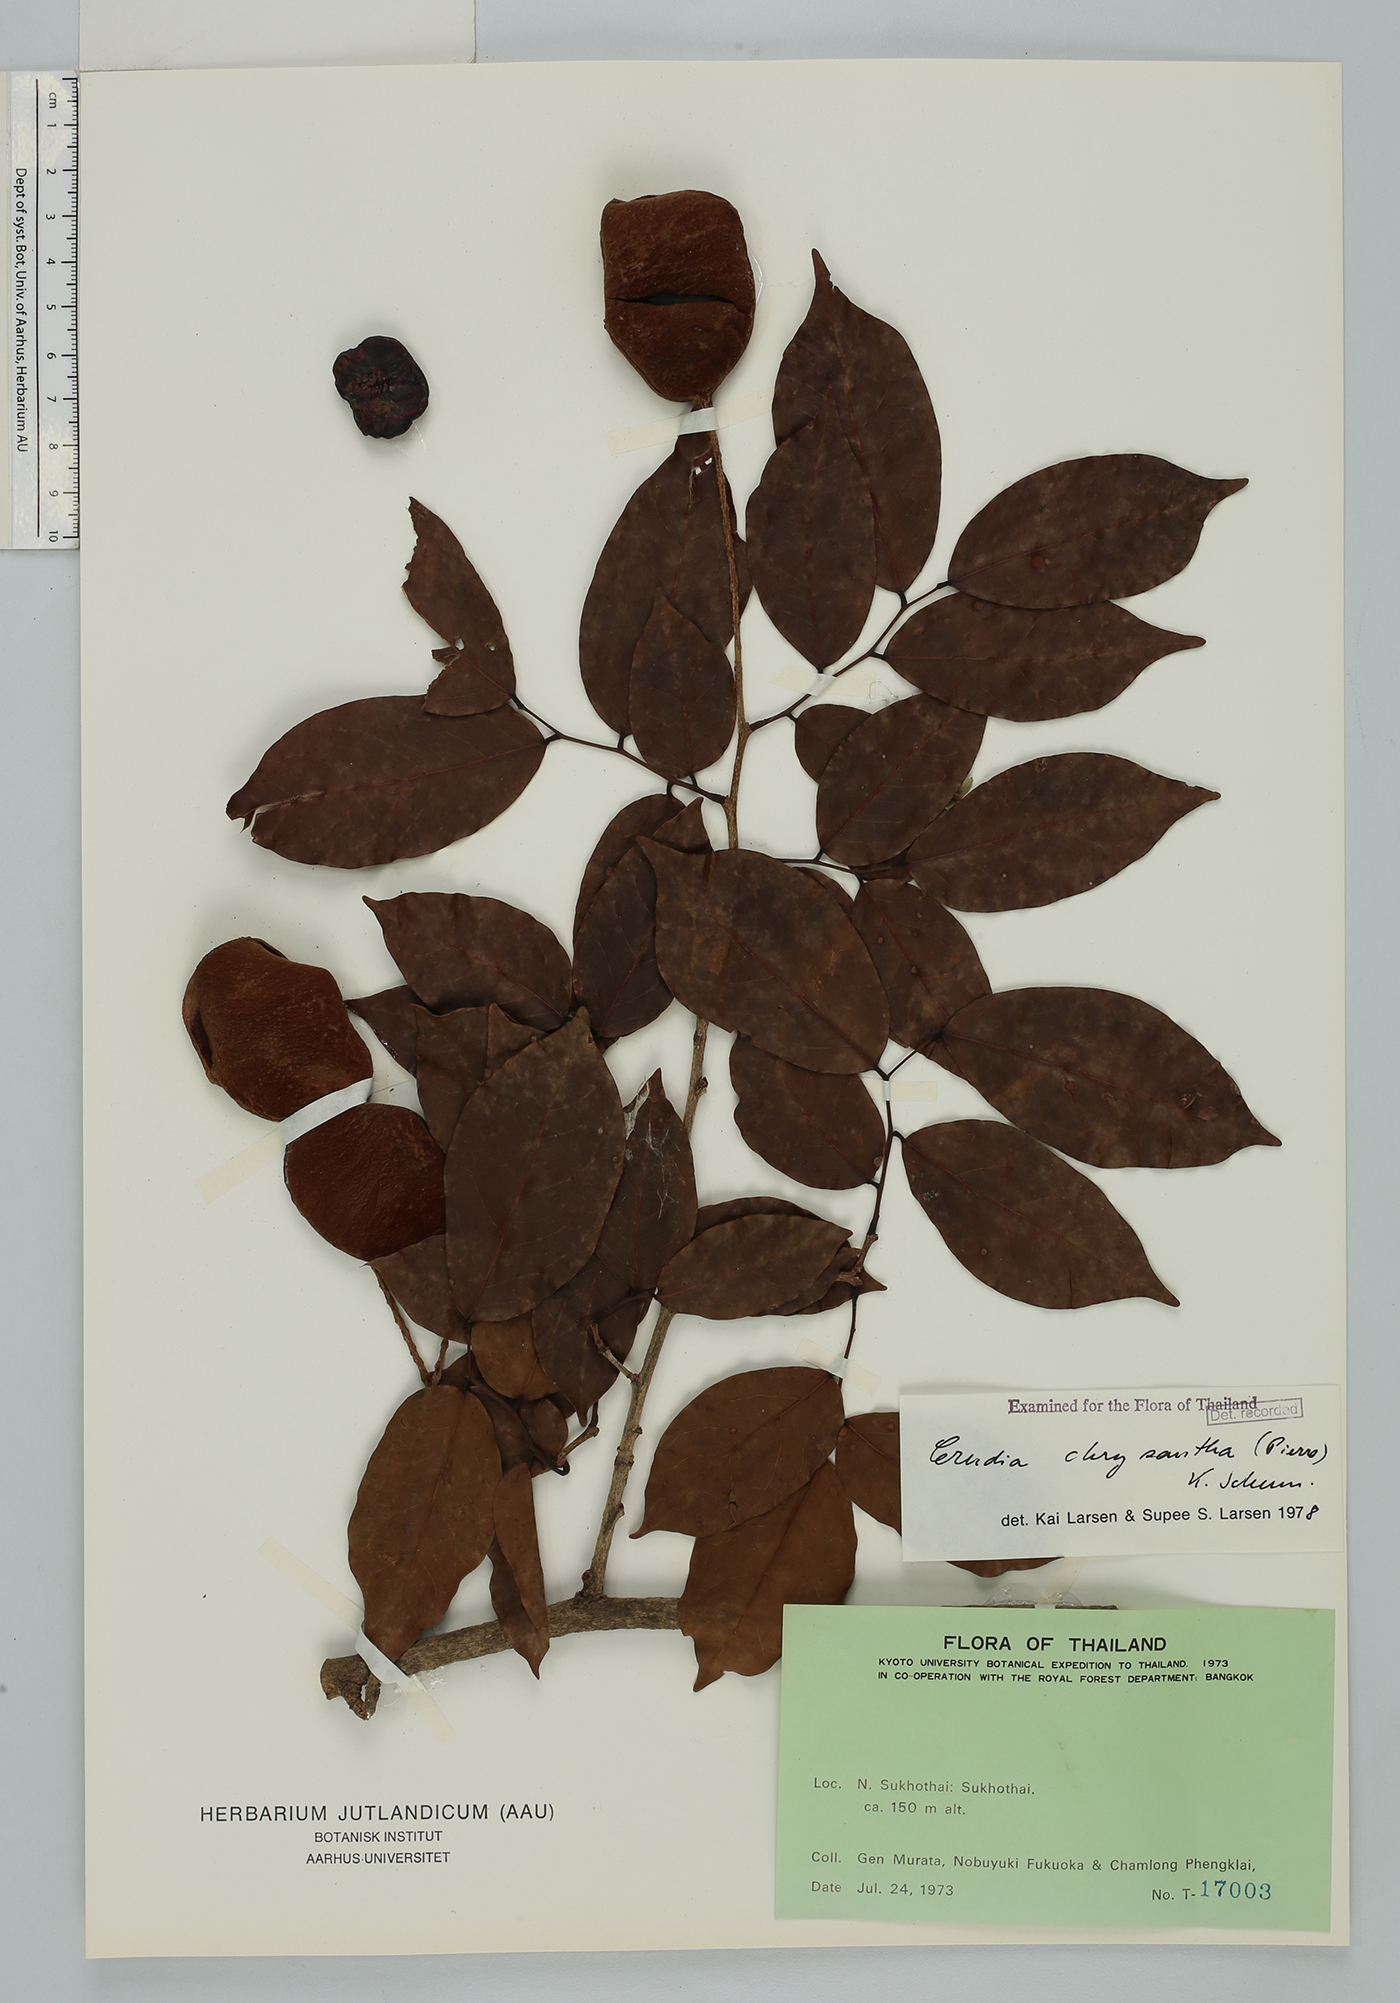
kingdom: Plantae
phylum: Tracheophyta
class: Magnoliopsida
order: Fabales
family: Fabaceae
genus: Crudia
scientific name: Crudia zeylanica
